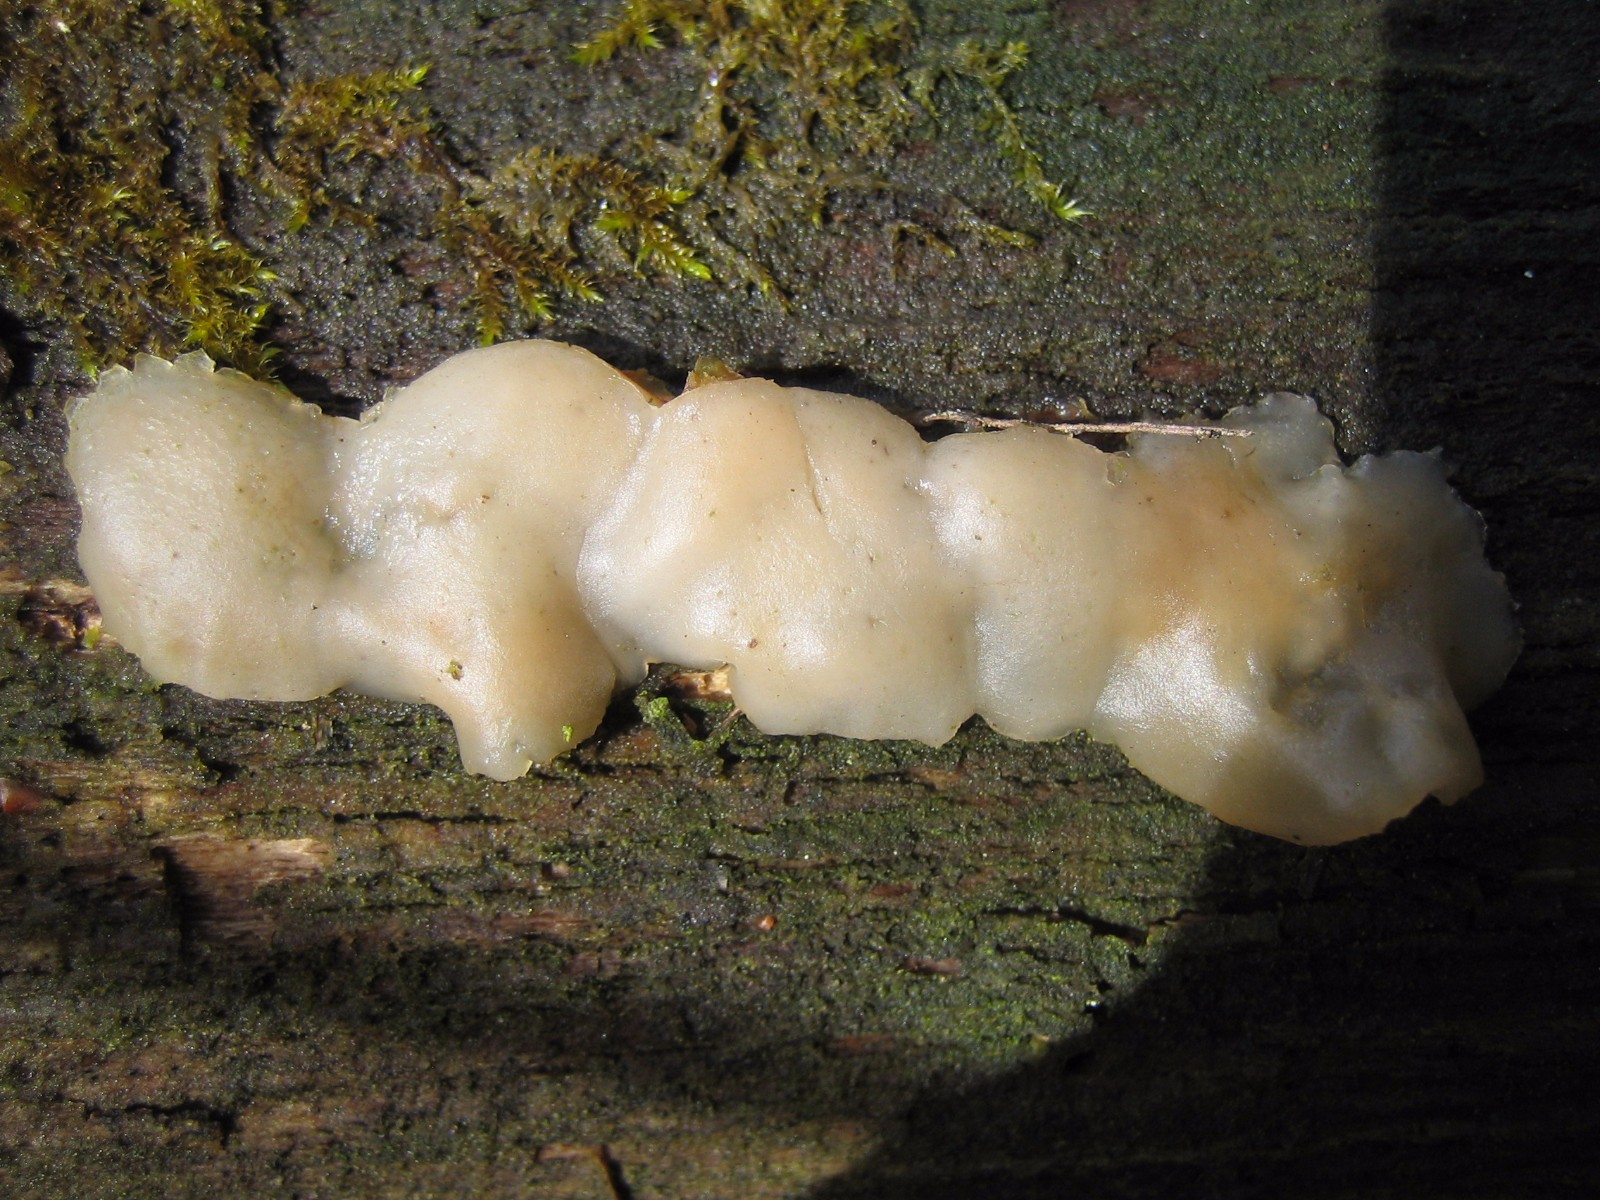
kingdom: Fungi
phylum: Basidiomycota
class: Agaricomycetes
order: Auriculariales
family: Auriculariaceae
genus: Exidia
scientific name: Exidia thuretiana
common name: hvidlig bævretop
